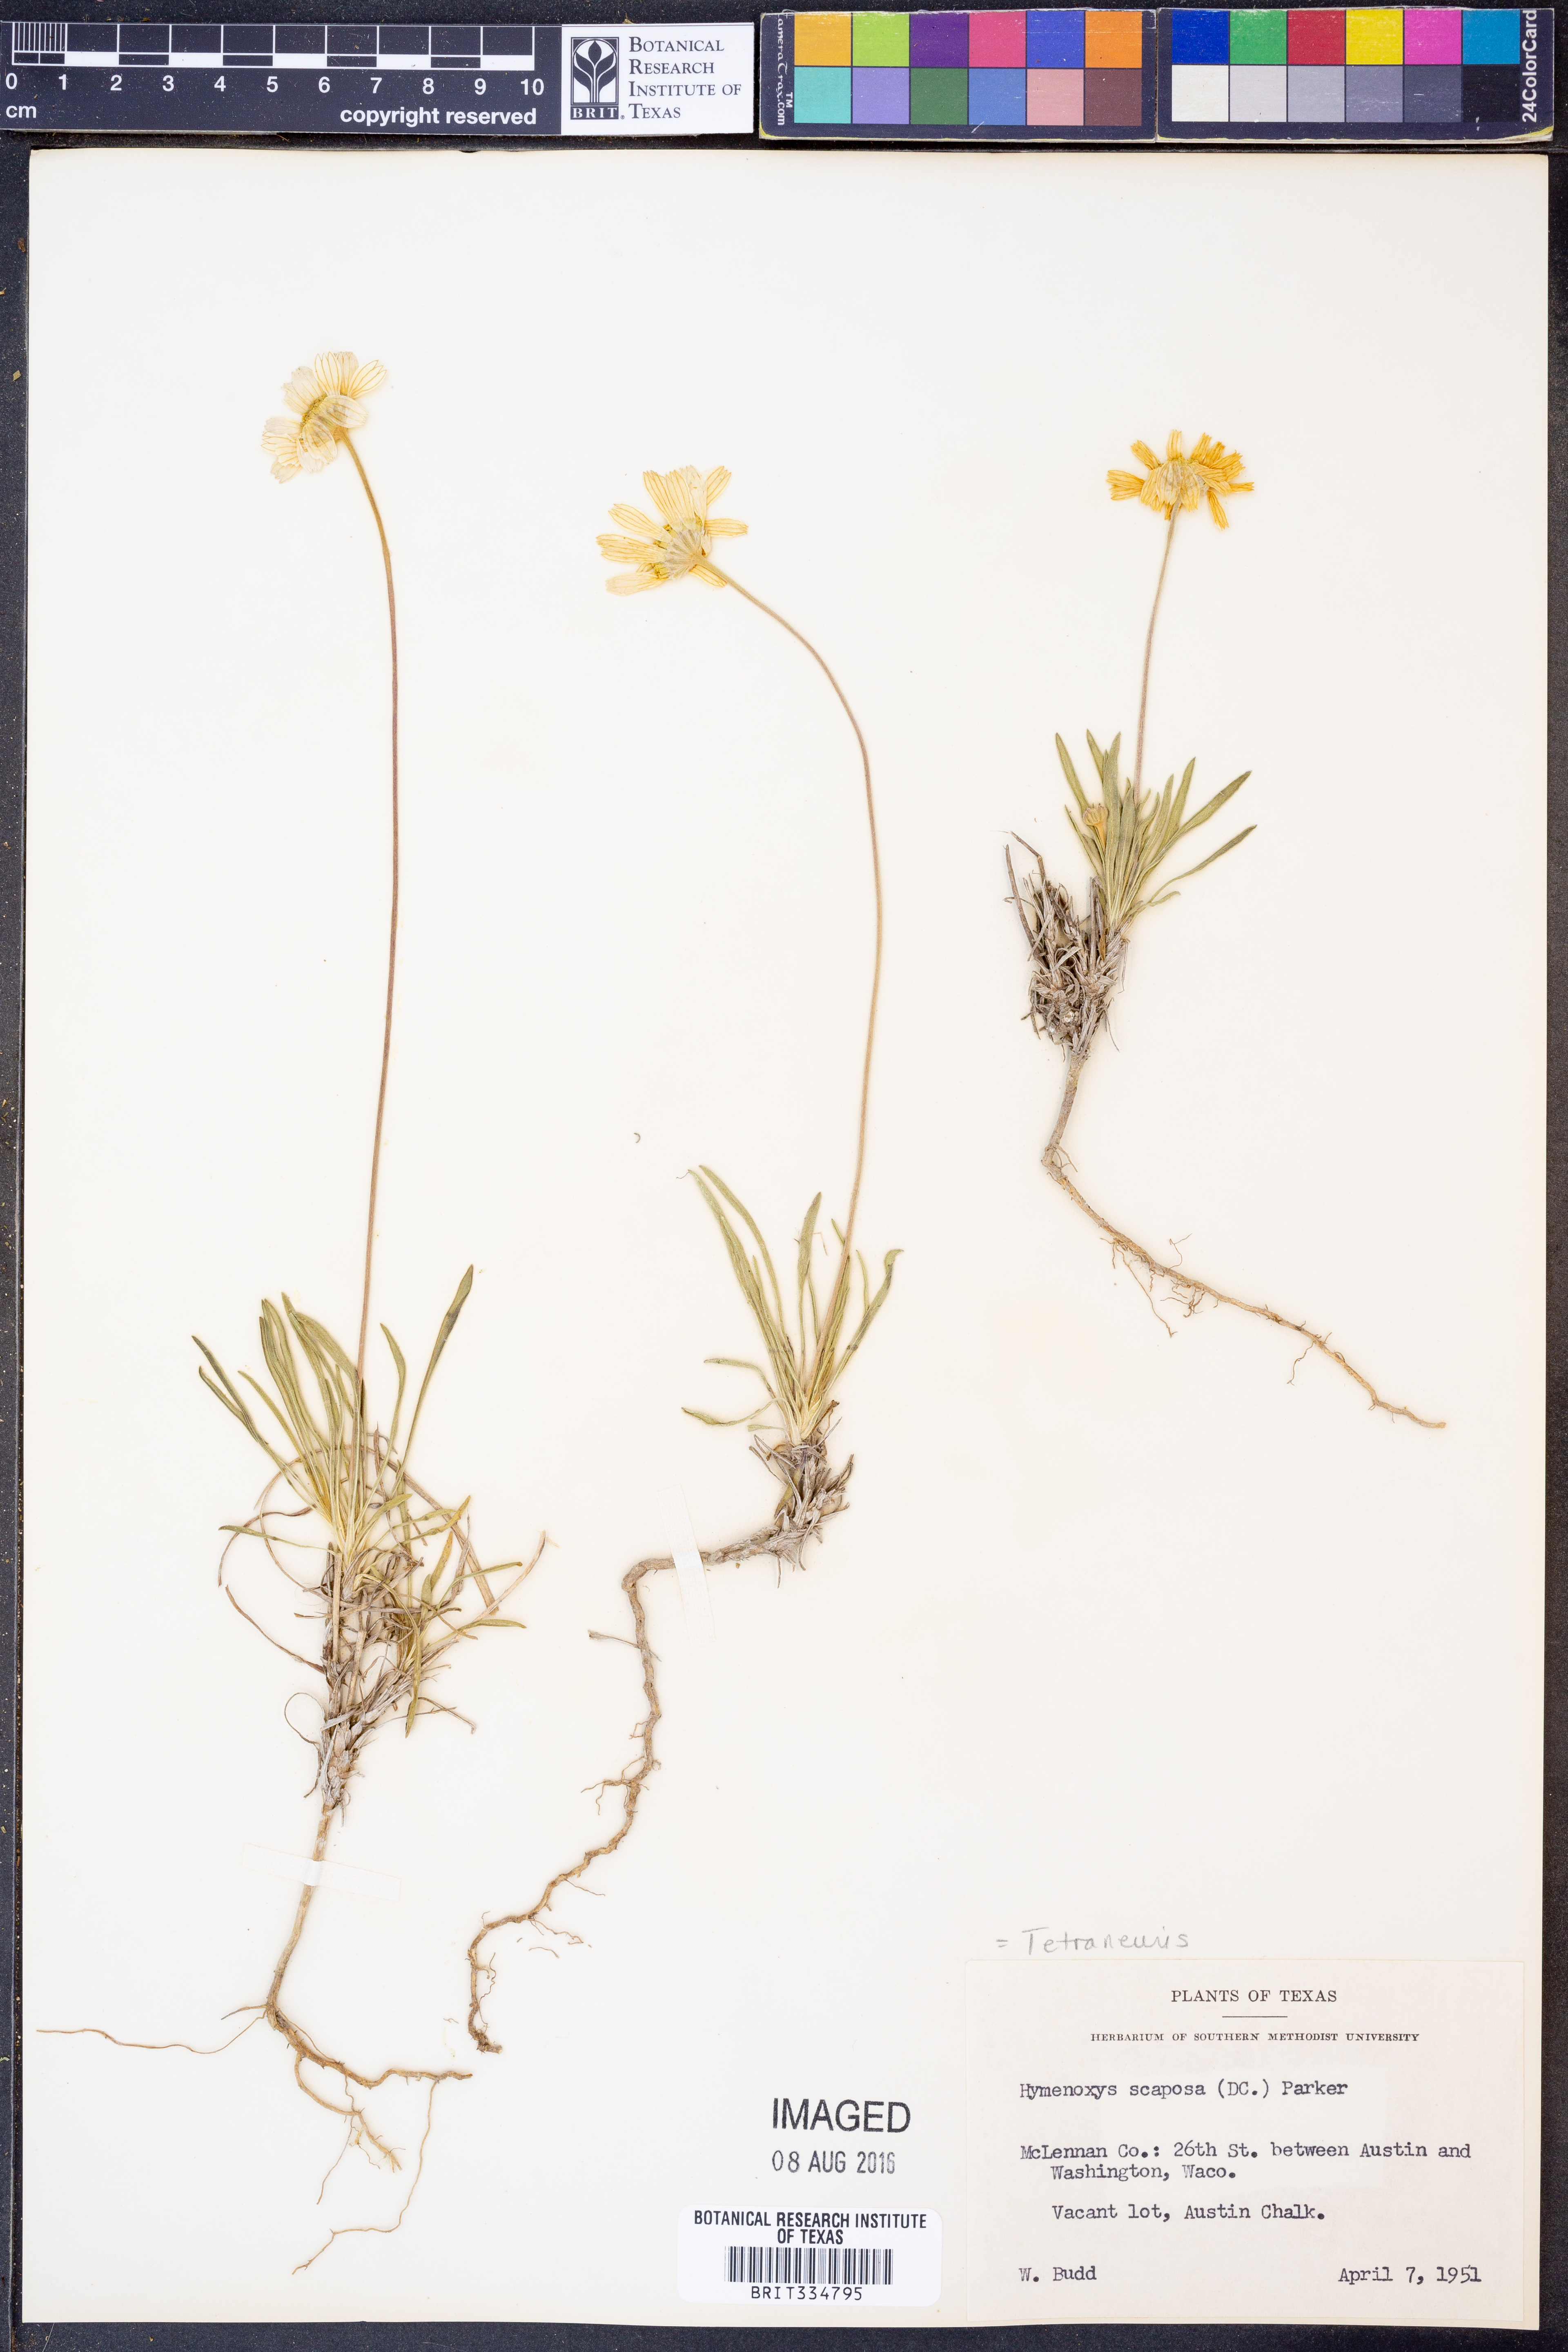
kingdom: Plantae
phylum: Tracheophyta
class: Magnoliopsida
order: Asterales
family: Asteraceae
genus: Tetraneuris
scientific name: Tetraneuris scaposa
